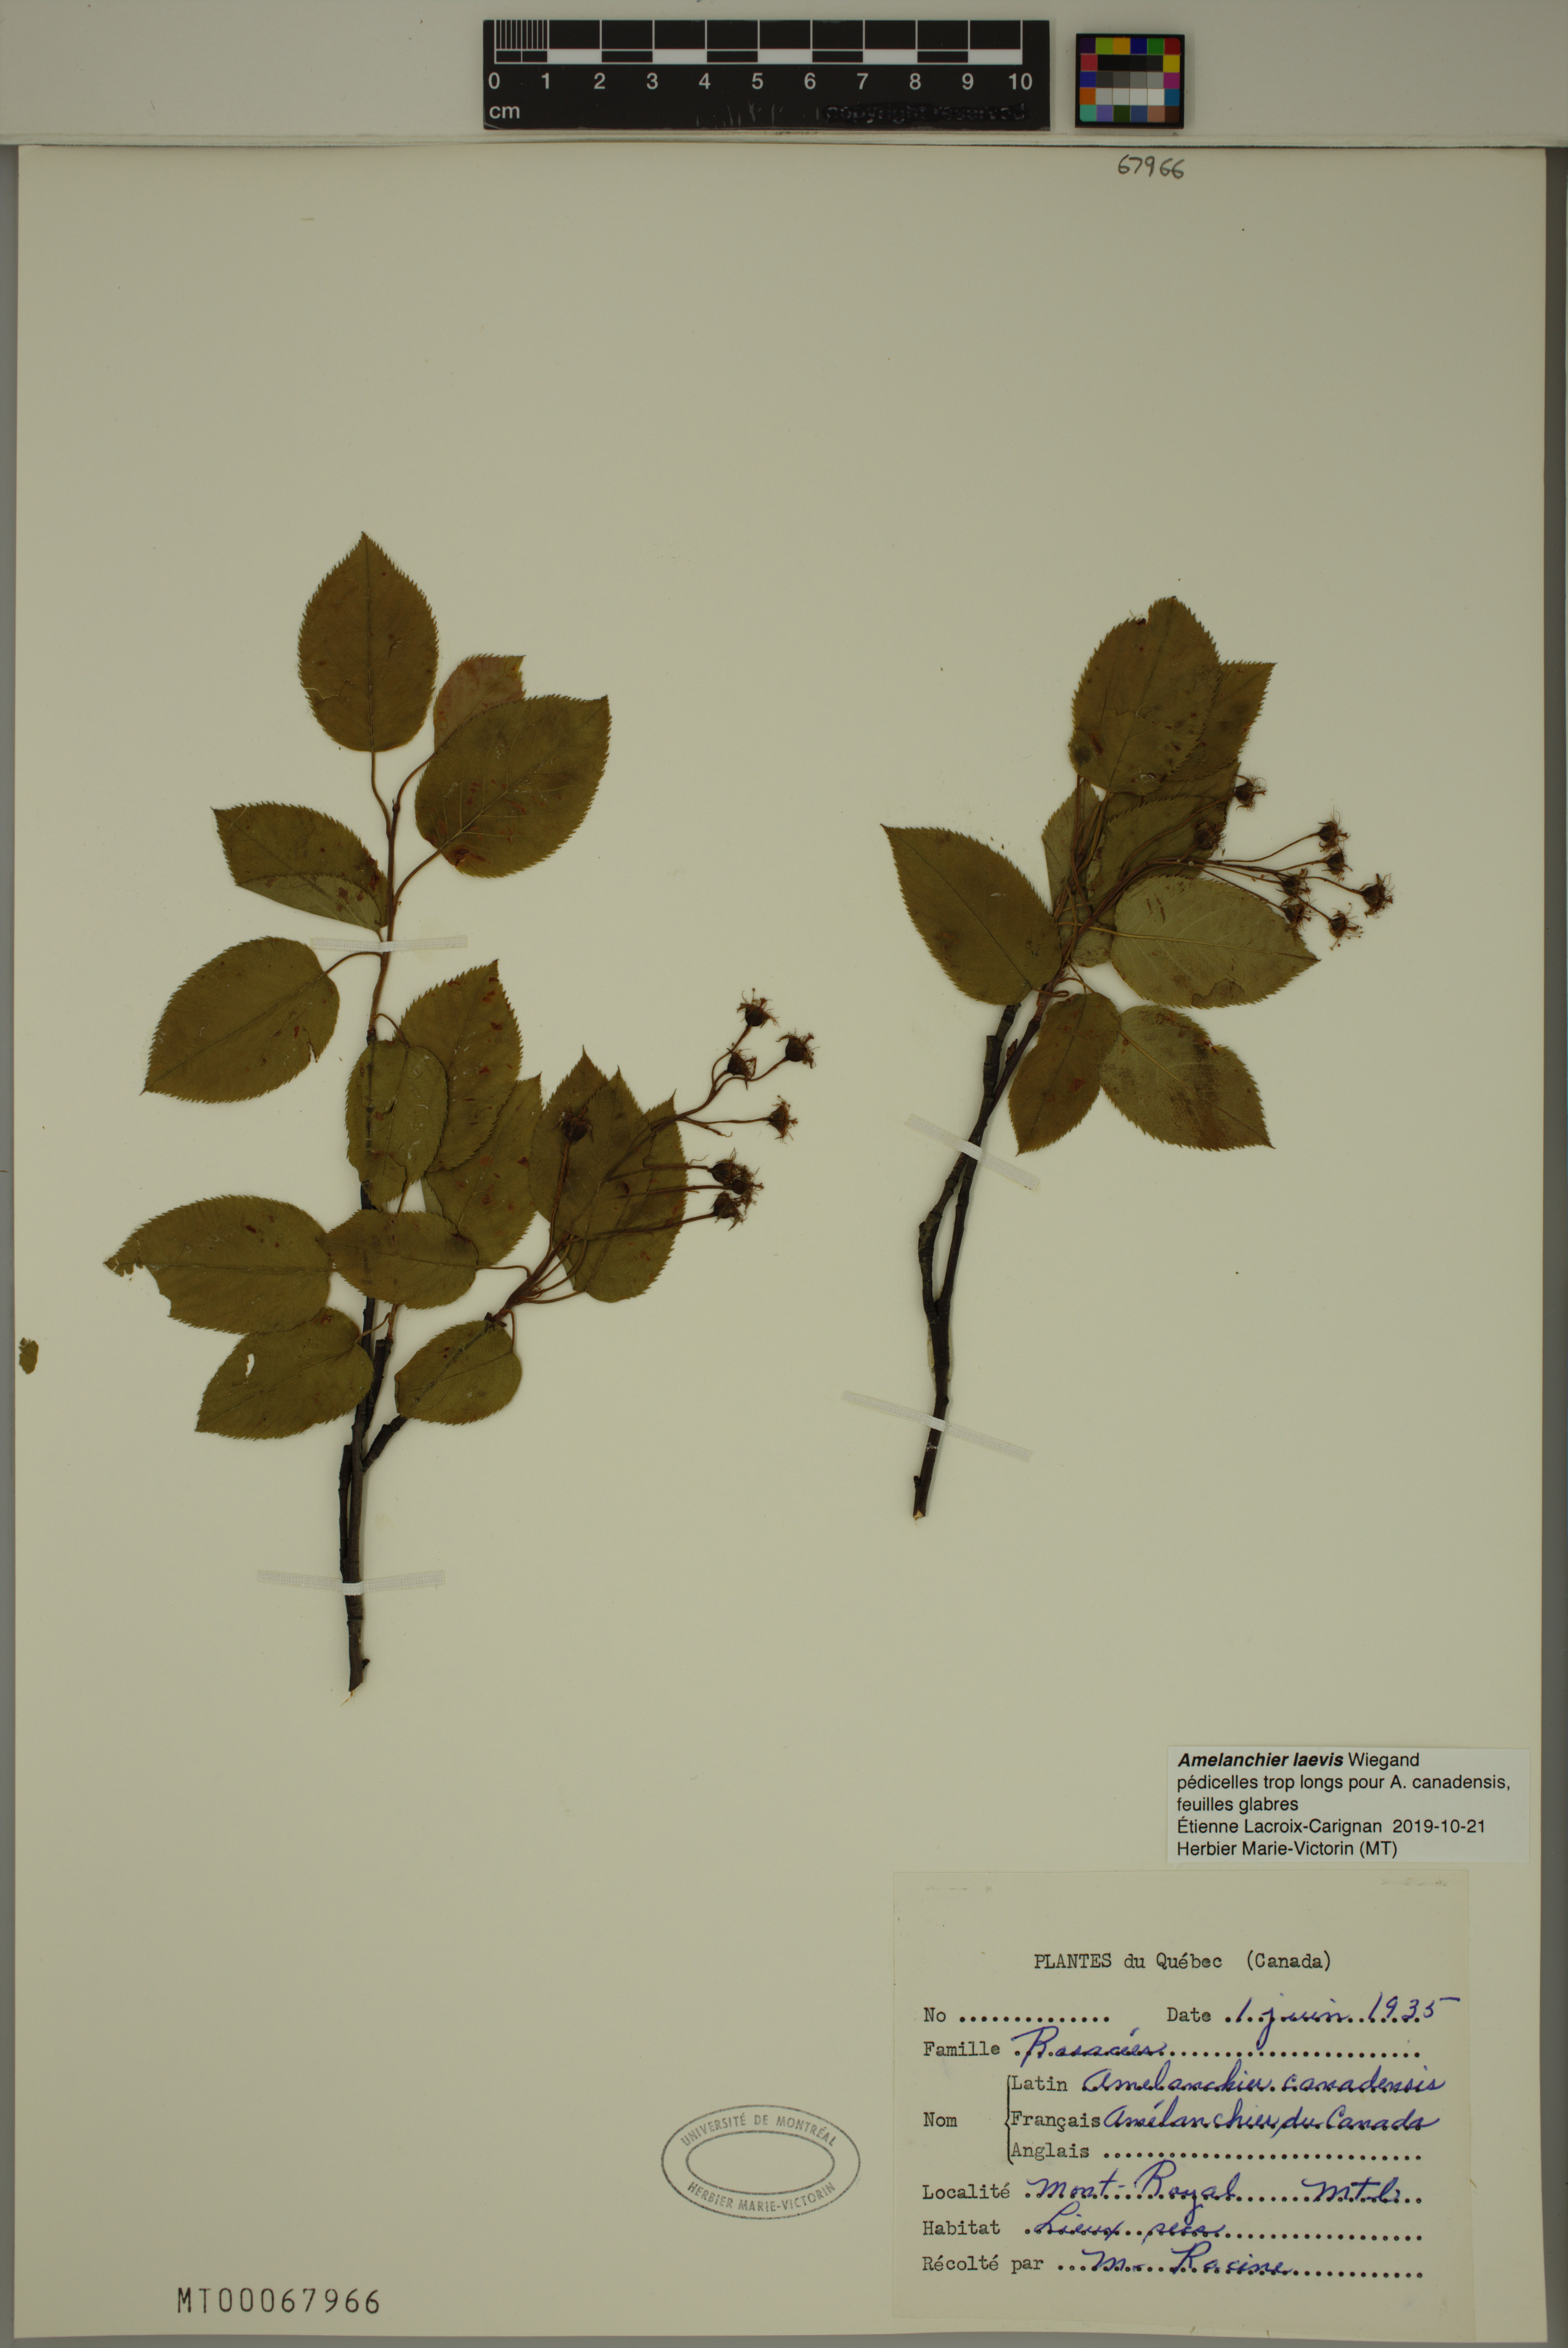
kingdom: Plantae
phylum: Tracheophyta
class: Magnoliopsida
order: Rosales
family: Rosaceae
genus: Amelanchier
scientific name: Amelanchier laevis
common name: Allegheny serviceberry
